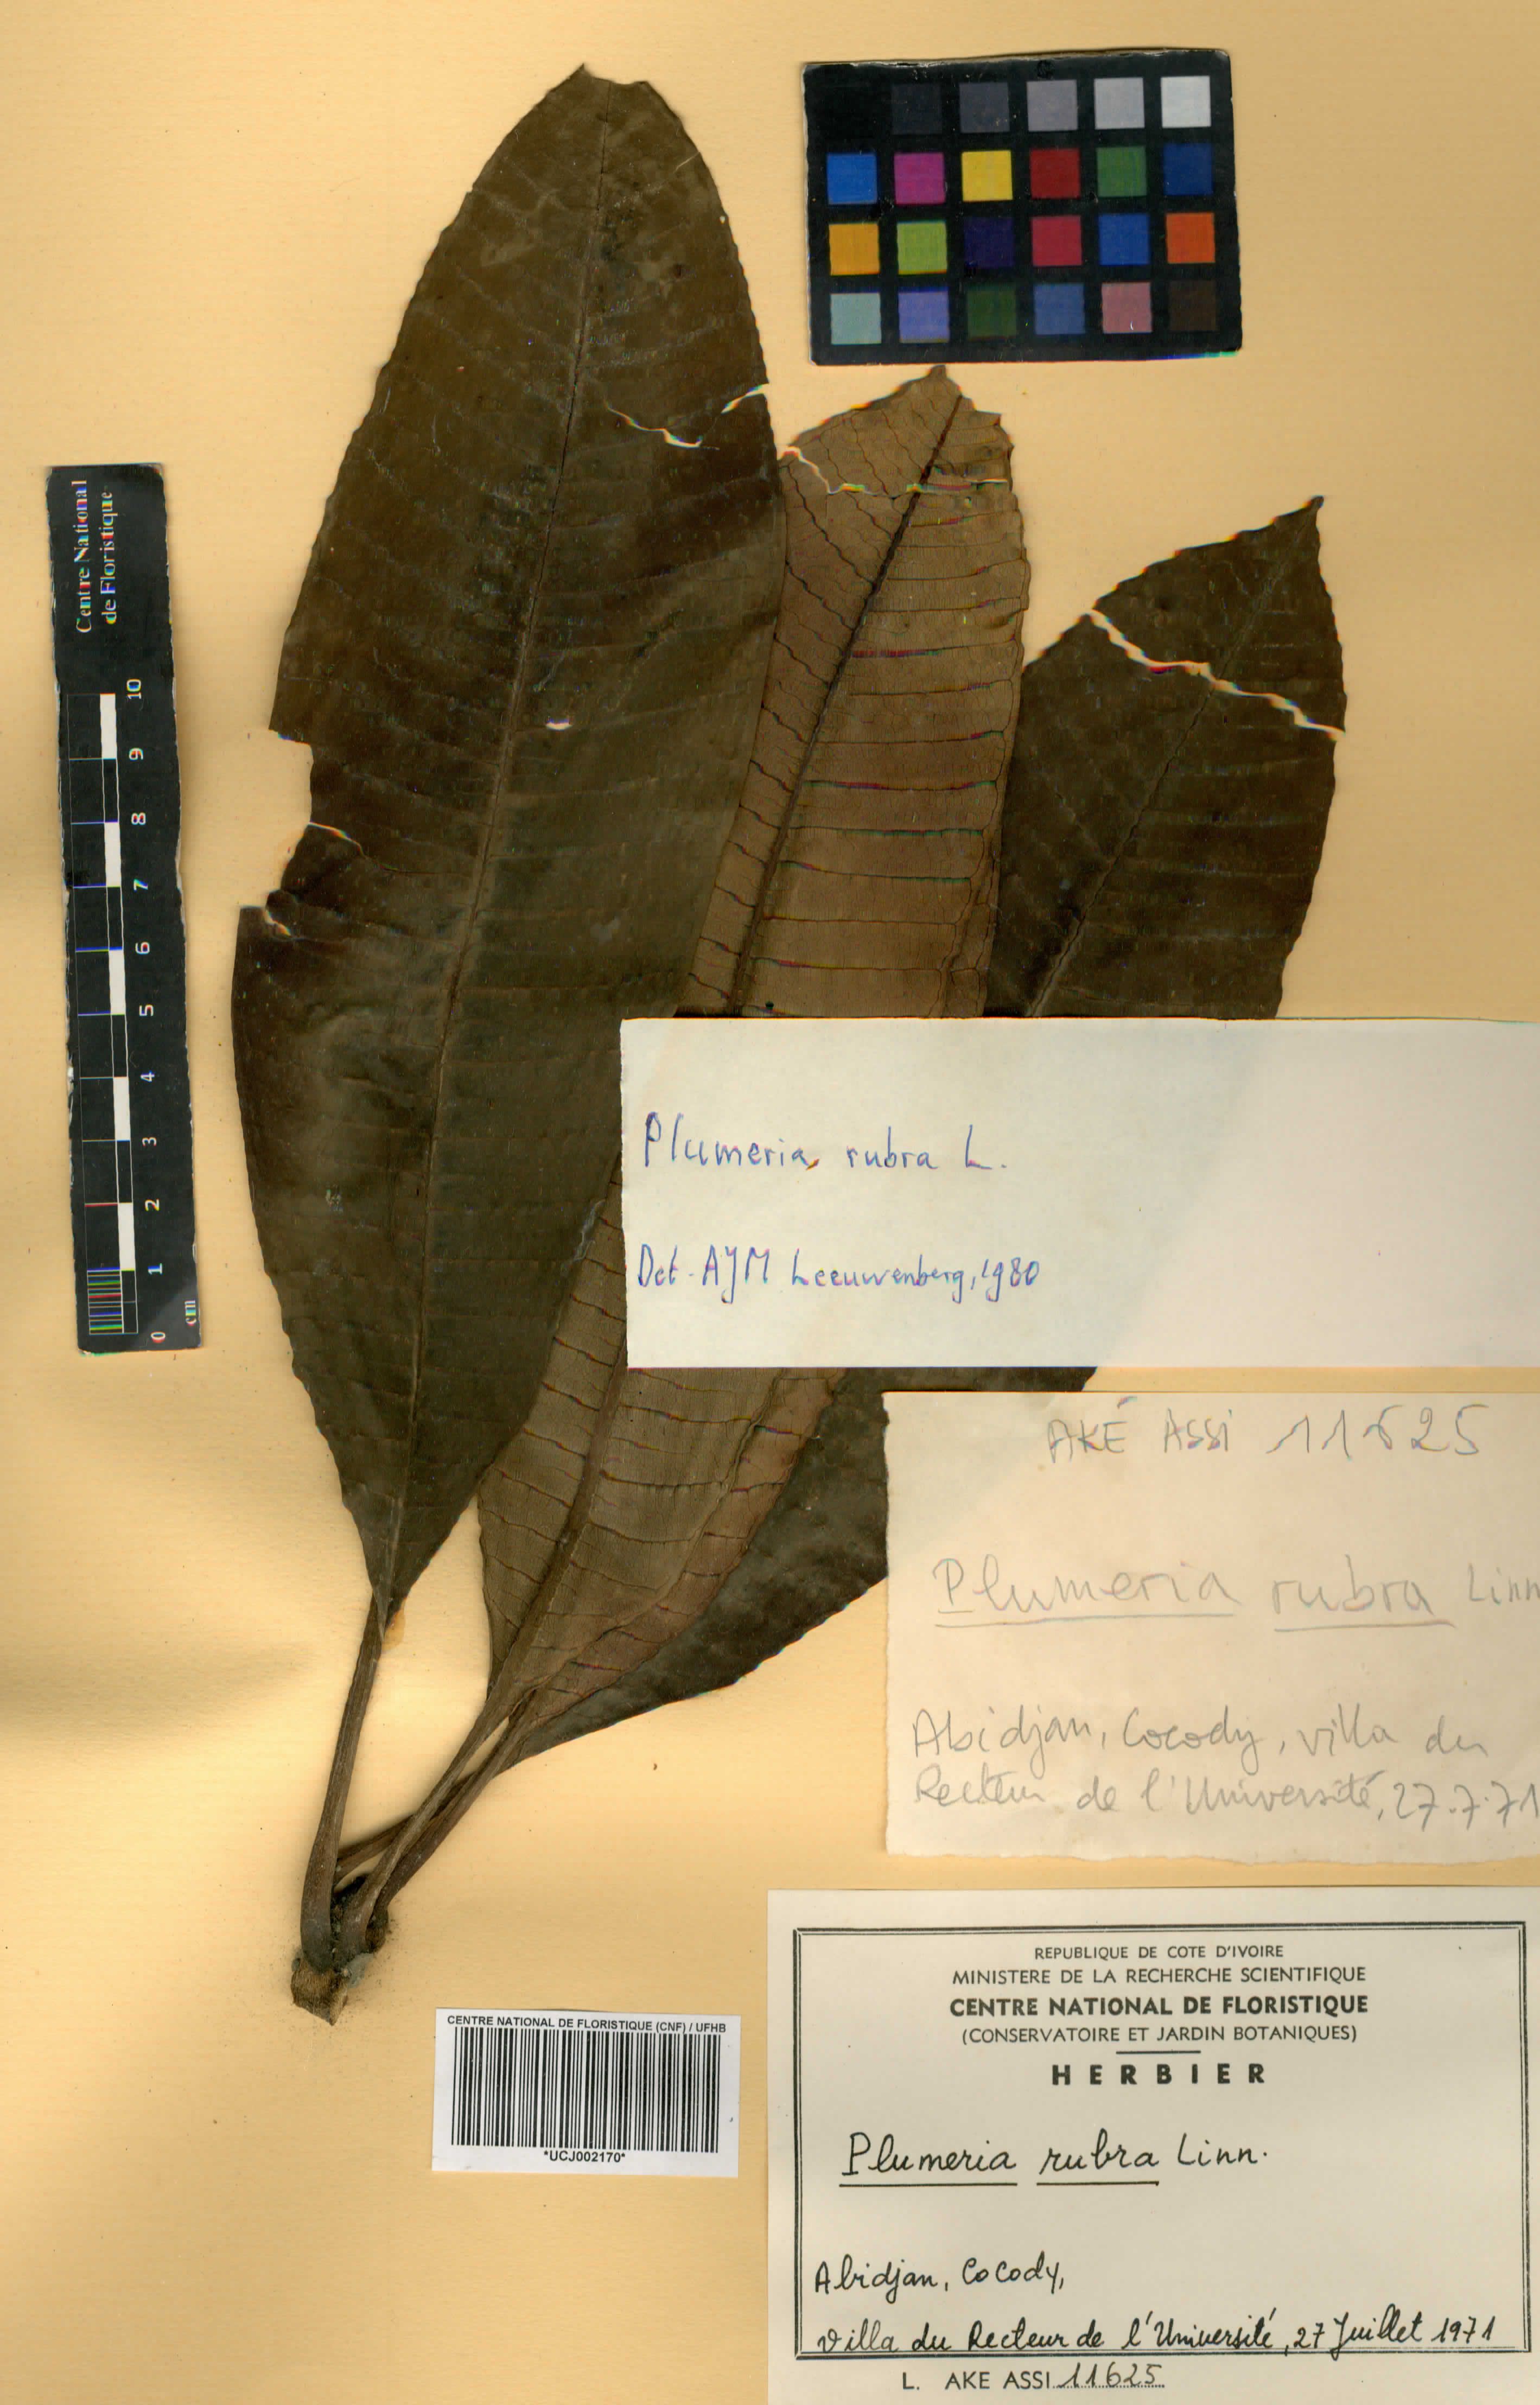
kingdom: Plantae
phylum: Tracheophyta
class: Magnoliopsida
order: Gentianales
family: Apocynaceae
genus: Plumeria
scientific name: Plumeria rubra
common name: Pagoda-tree
